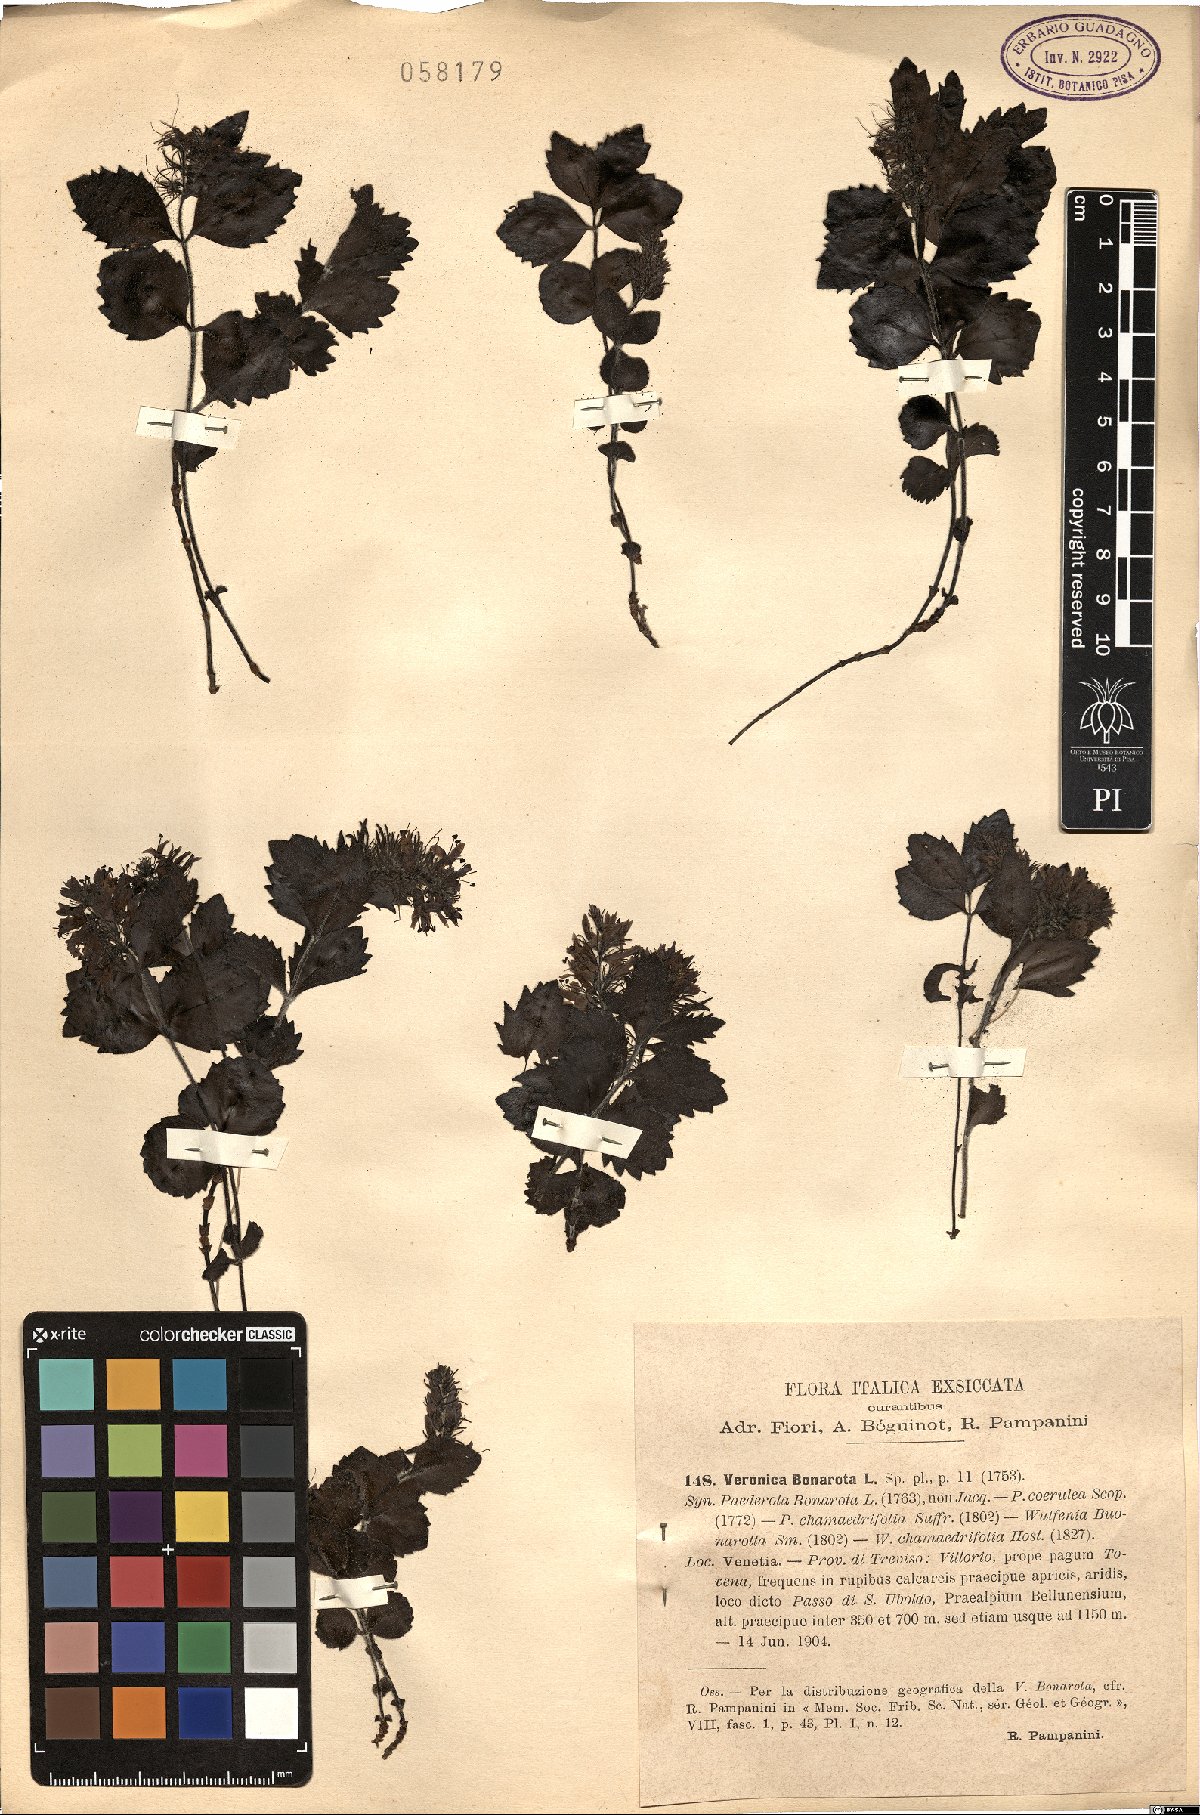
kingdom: Plantae
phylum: Tracheophyta
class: Magnoliopsida
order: Lamiales
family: Plantaginaceae
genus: Paederota
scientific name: Paederota bonarota
